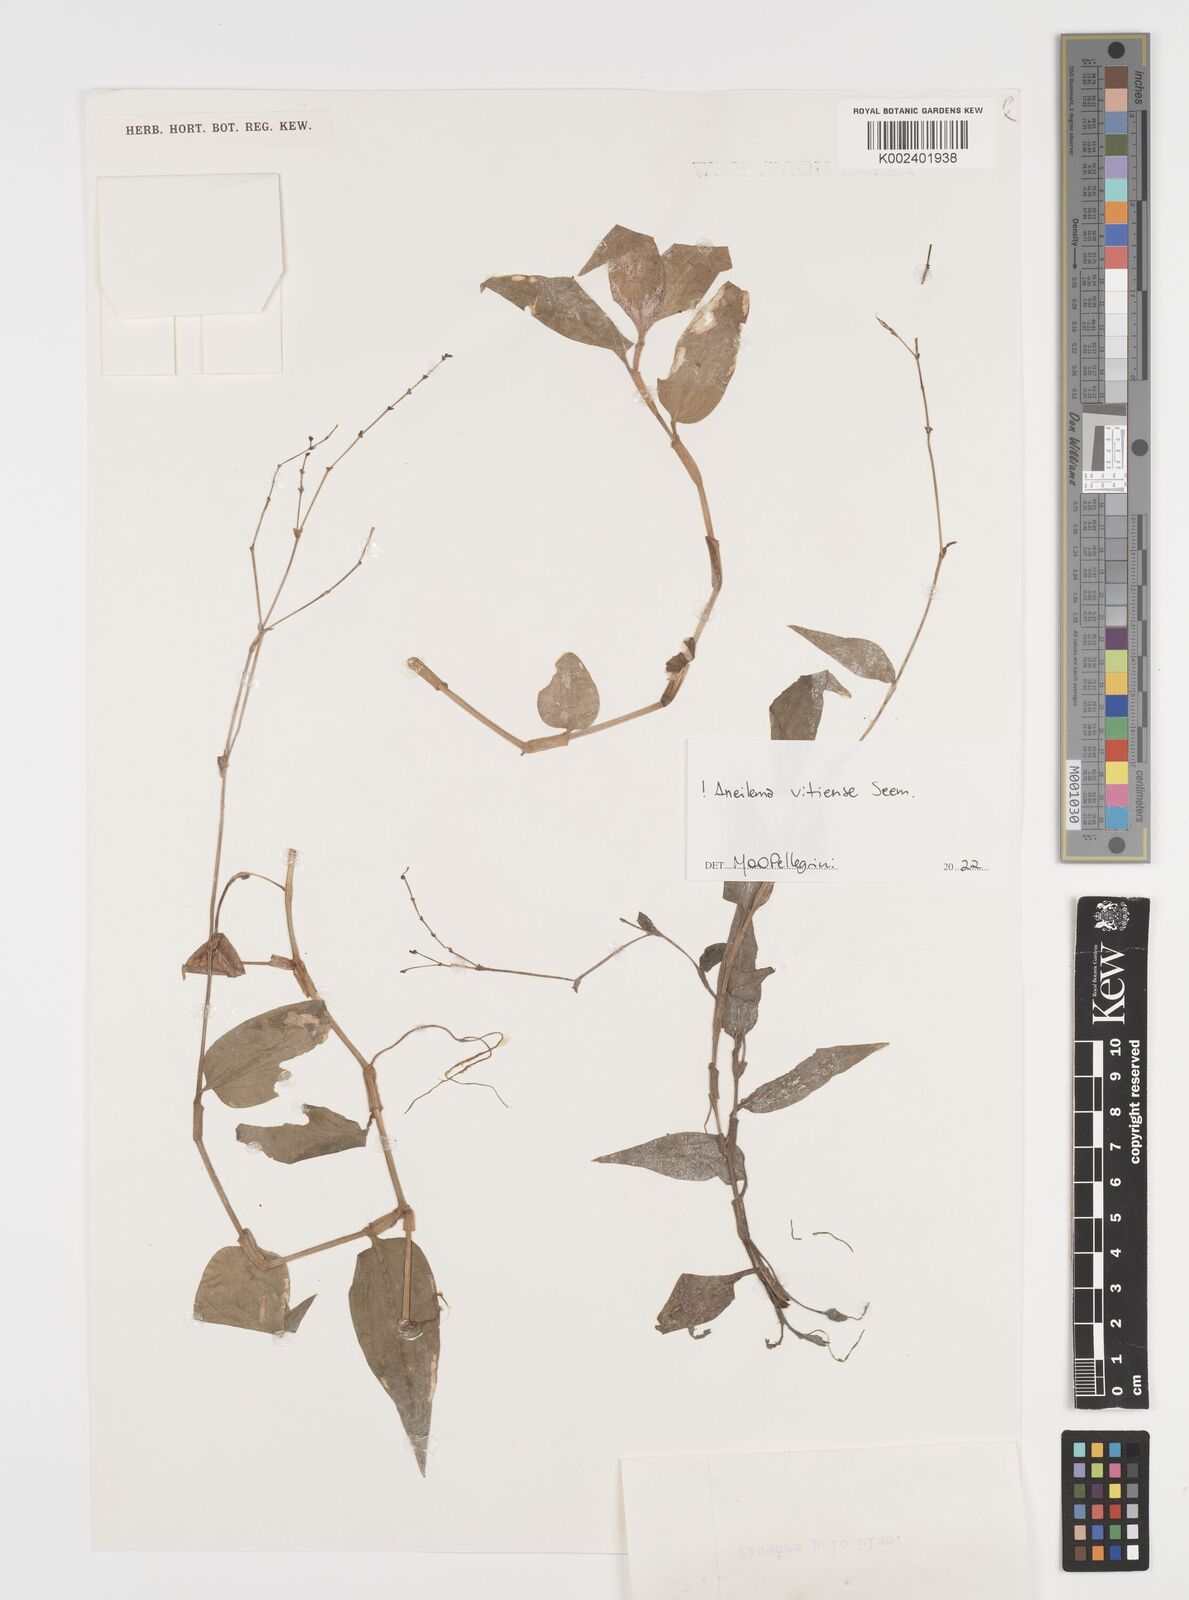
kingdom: Plantae
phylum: Tracheophyta
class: Liliopsida
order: Commelinales
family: Commelinaceae
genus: Rhopalephora
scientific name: Rhopalephora vitiensis
